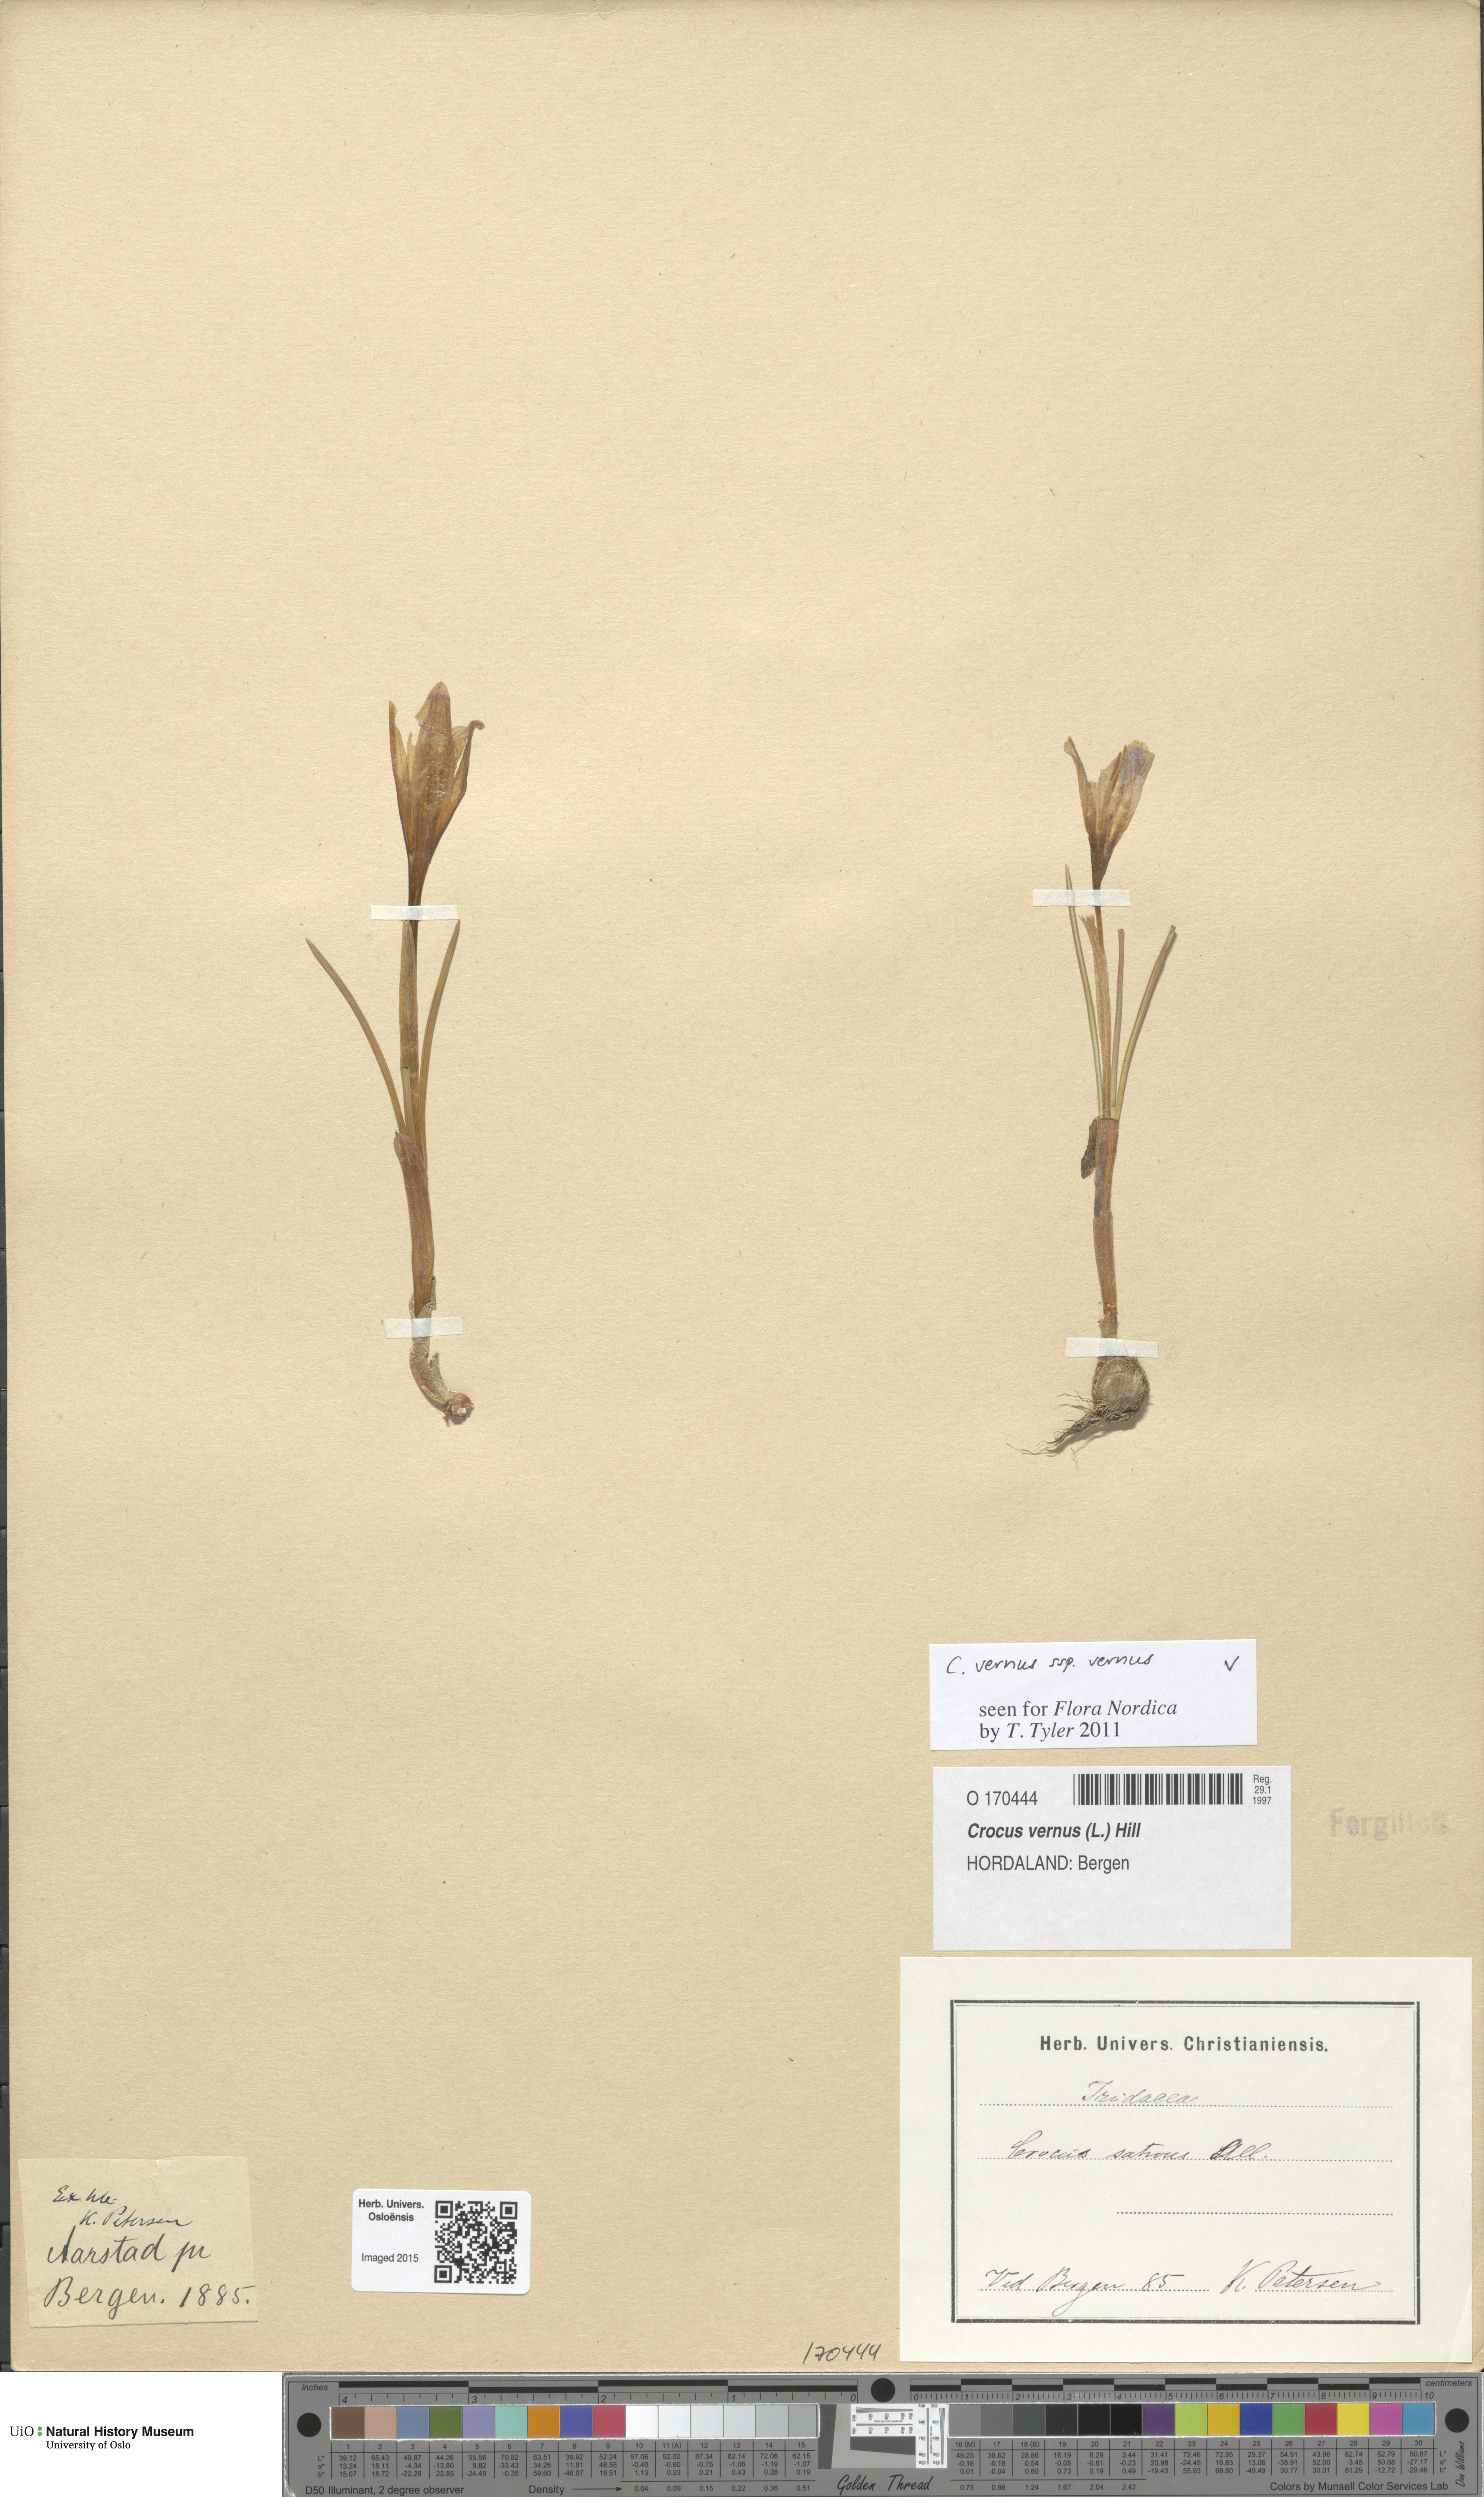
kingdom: Plantae
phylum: Tracheophyta
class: Liliopsida
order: Asparagales
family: Iridaceae
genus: Crocus
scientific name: Crocus vernus
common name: Spring crocus
